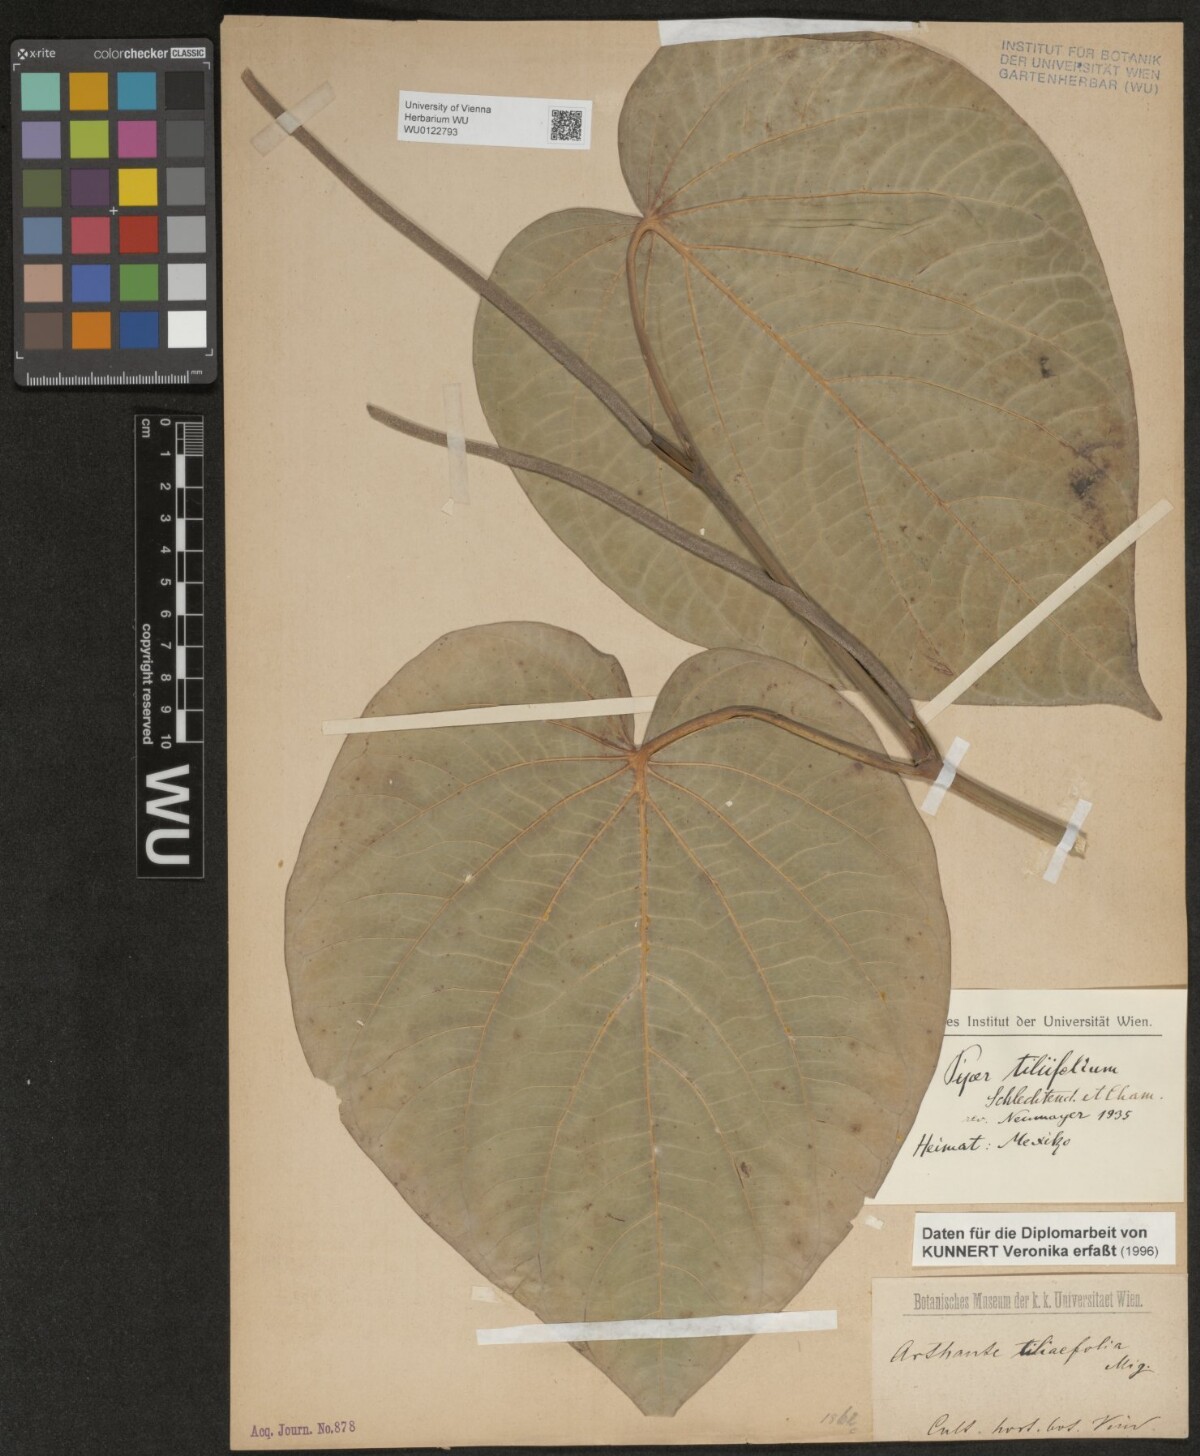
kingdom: Plantae
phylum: Tracheophyta
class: Magnoliopsida
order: Piperales
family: Piperaceae
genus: Piper
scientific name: Piper schiedeanum
